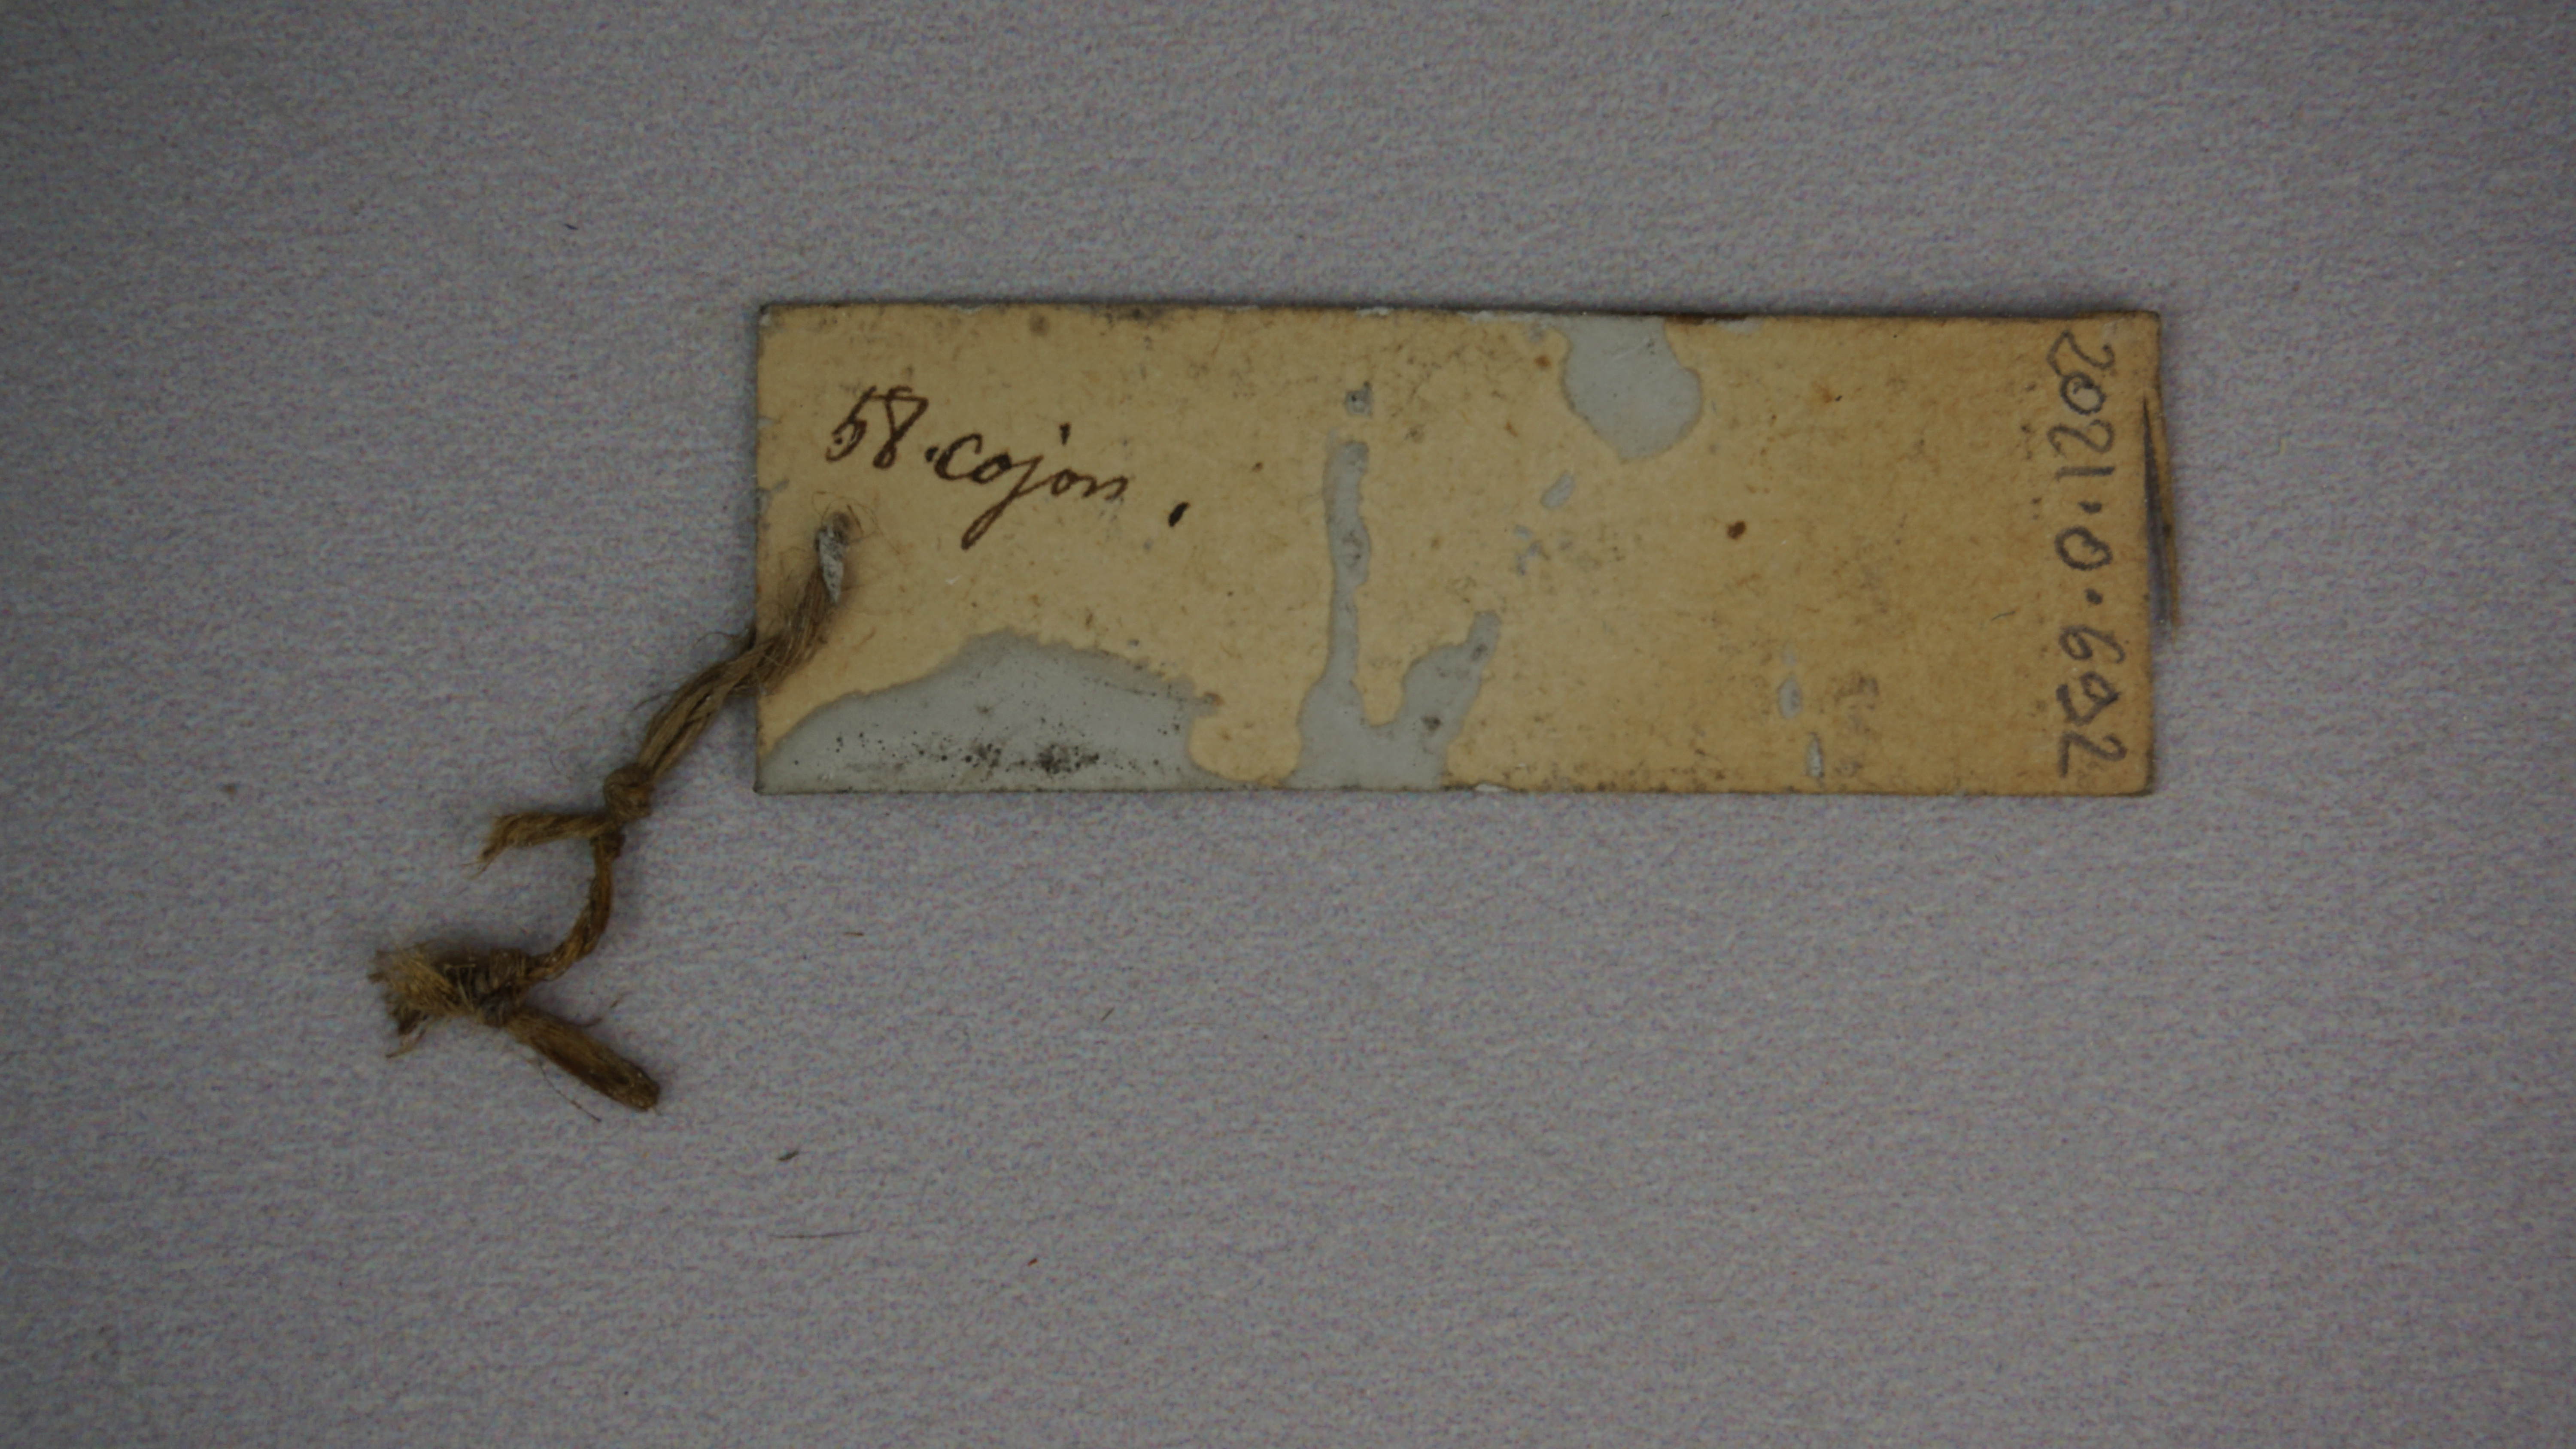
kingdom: Animalia
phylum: Chordata
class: Aves
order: Charadriiformes
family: Thinocoridae
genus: Thinocorus
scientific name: Thinocorus orbignyianus
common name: Grey-breasted seedsnipe
